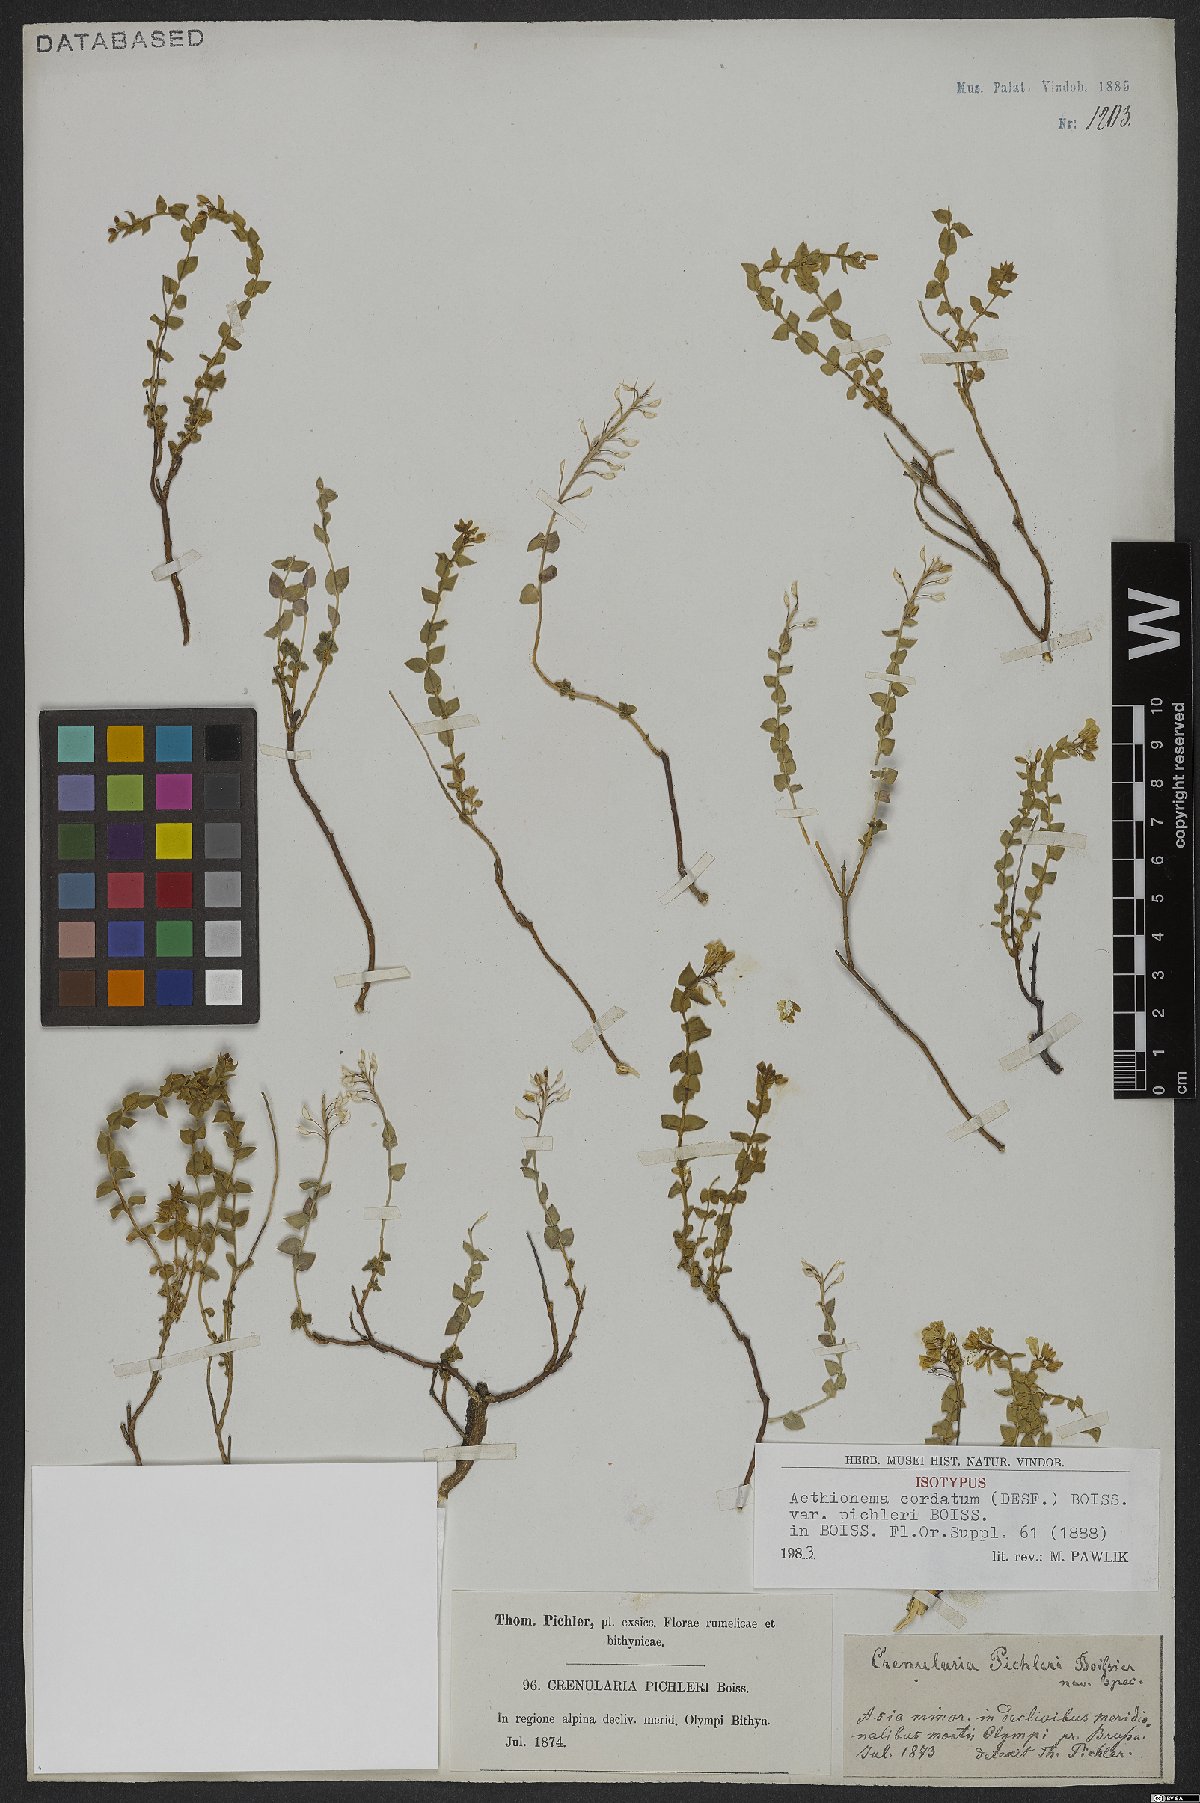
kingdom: Plantae
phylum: Tracheophyta
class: Magnoliopsida
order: Brassicales
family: Brassicaceae
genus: Aethionema
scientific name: Aethionema cordatum
